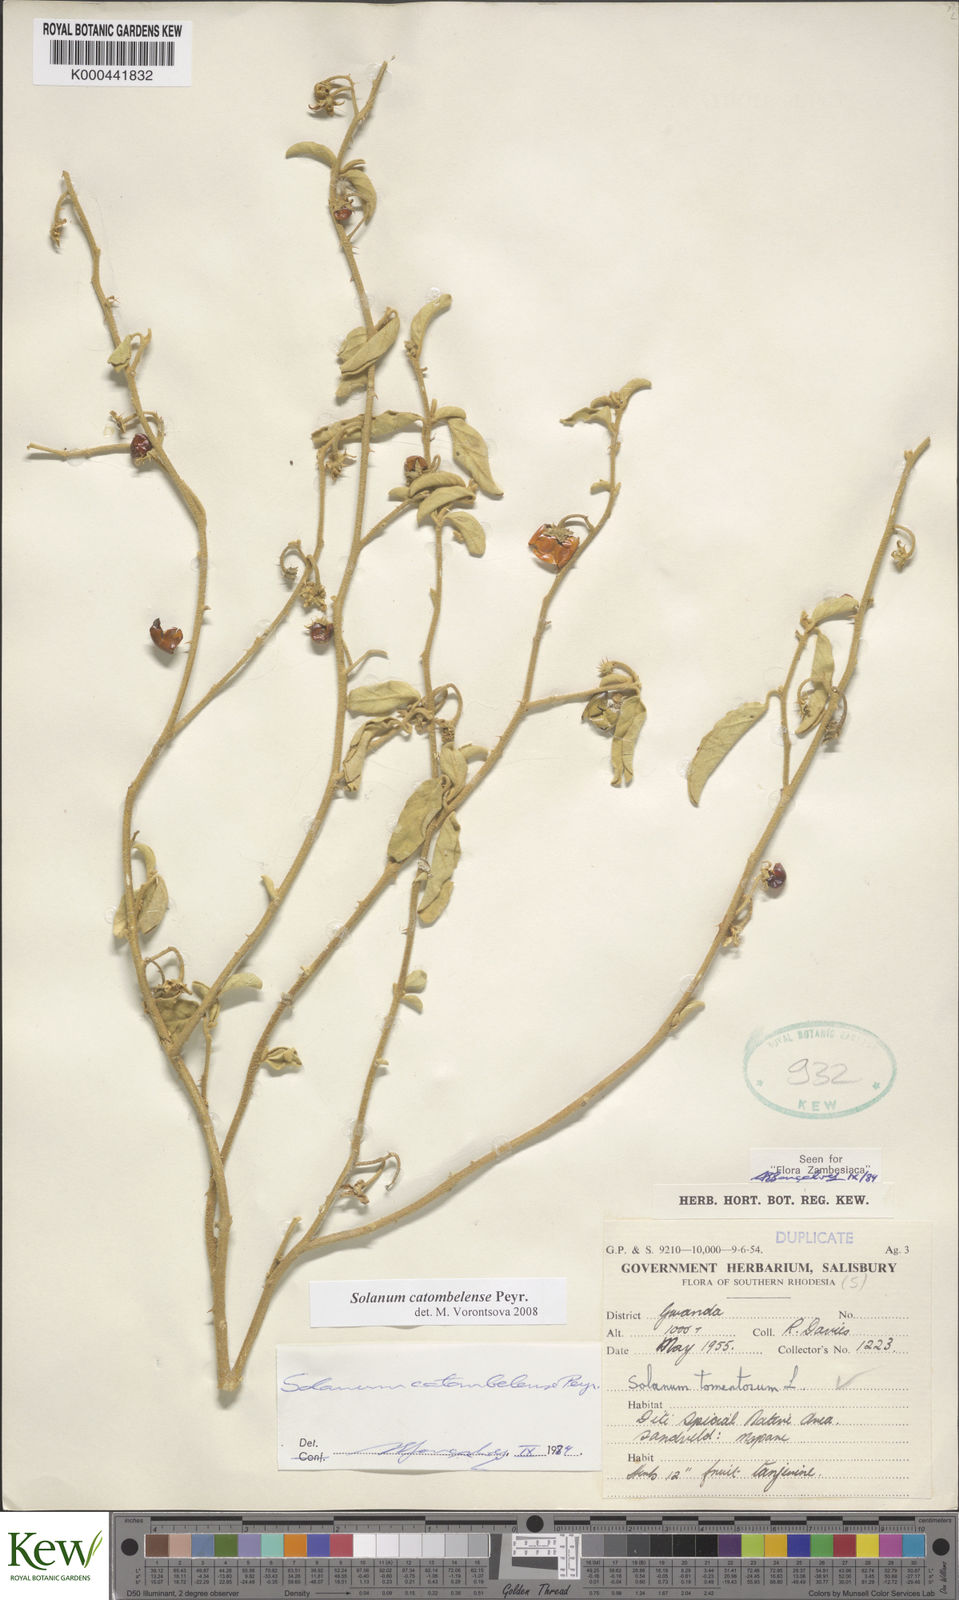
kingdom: Plantae
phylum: Tracheophyta
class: Magnoliopsida
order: Solanales
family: Solanaceae
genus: Solanum
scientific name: Solanum catombelense
